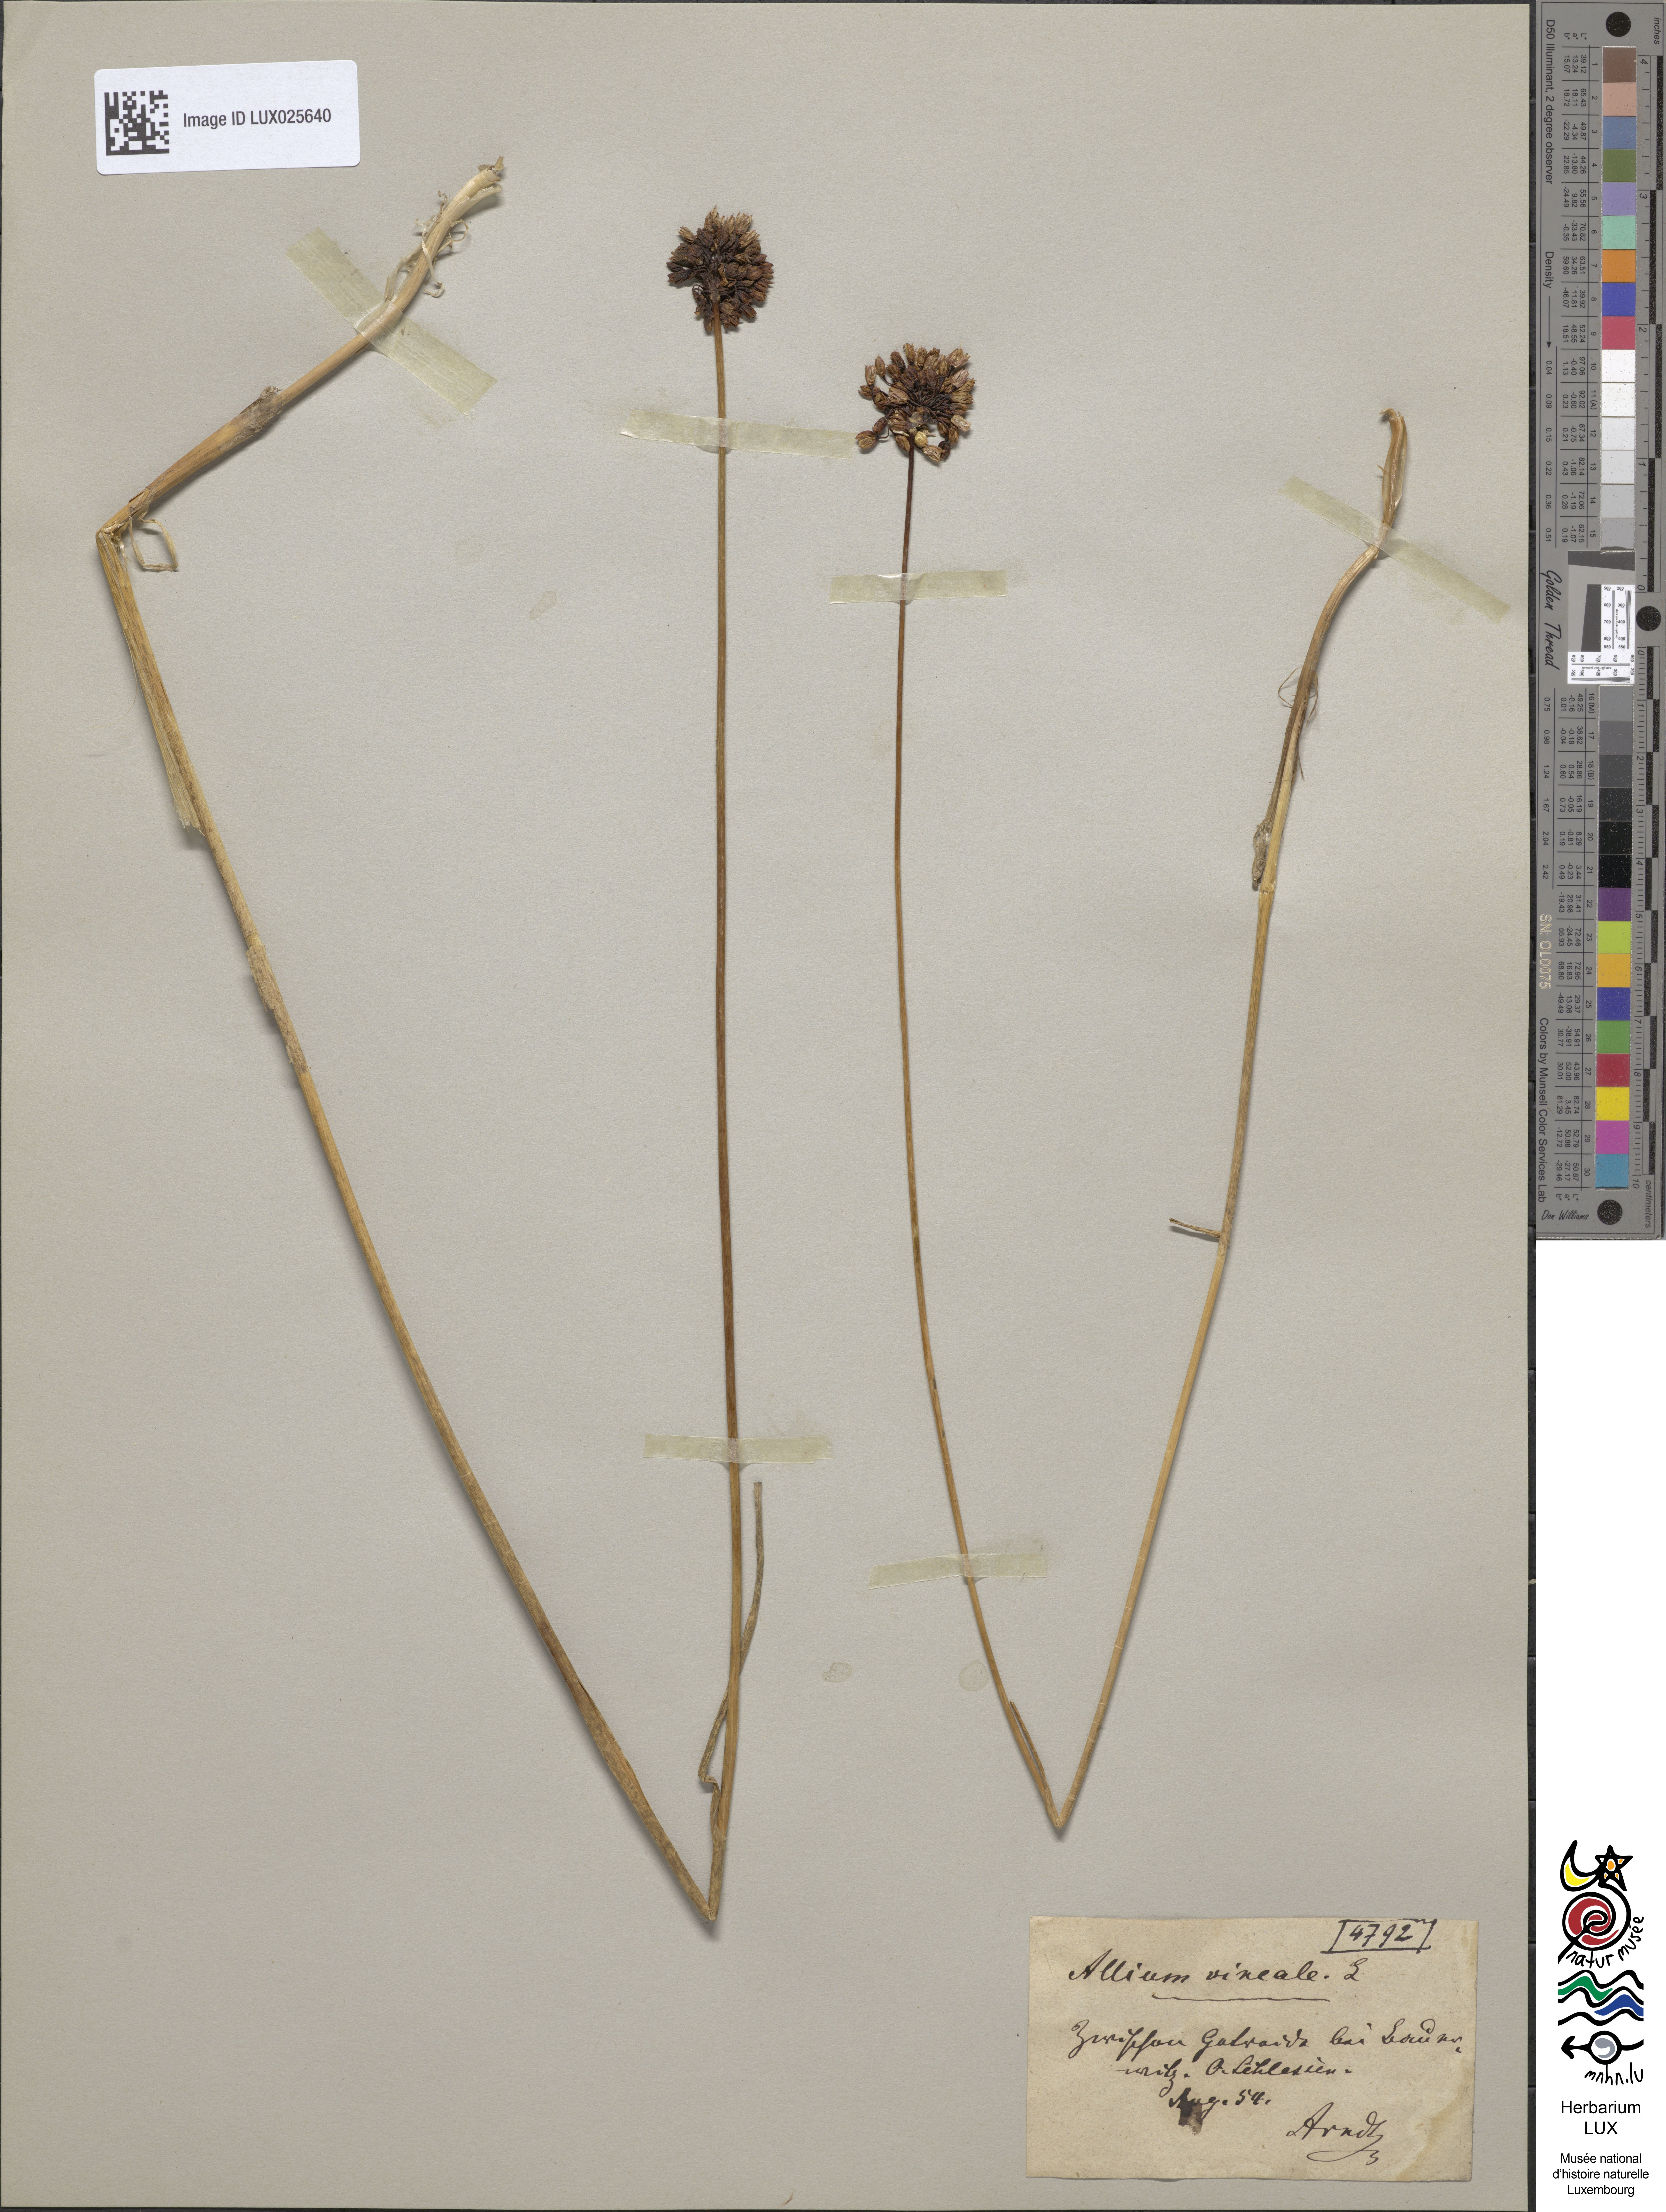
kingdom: Plantae
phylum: Tracheophyta
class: Liliopsida
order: Asparagales
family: Amaryllidaceae
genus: Allium
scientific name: Allium vineale
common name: Crow garlic
